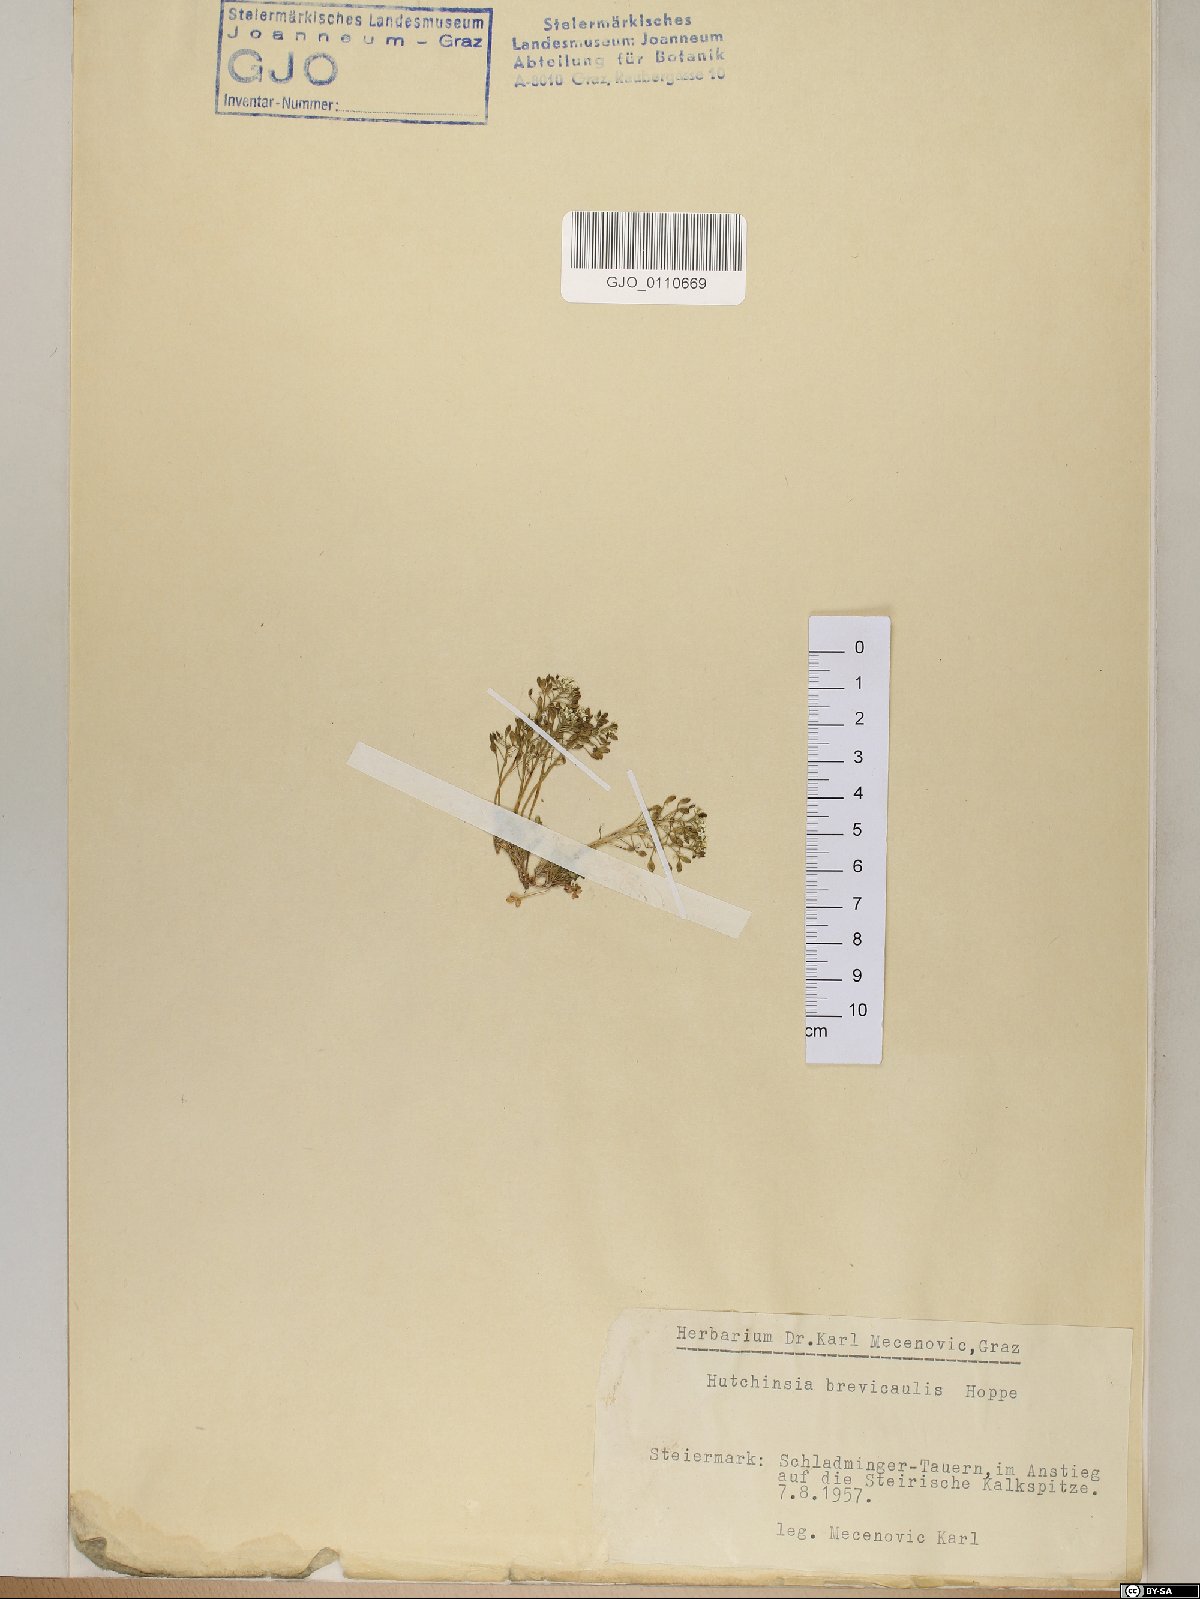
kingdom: Plantae
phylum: Tracheophyta
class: Magnoliopsida
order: Brassicales
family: Brassicaceae
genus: Hornungia
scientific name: Hornungia alpina
